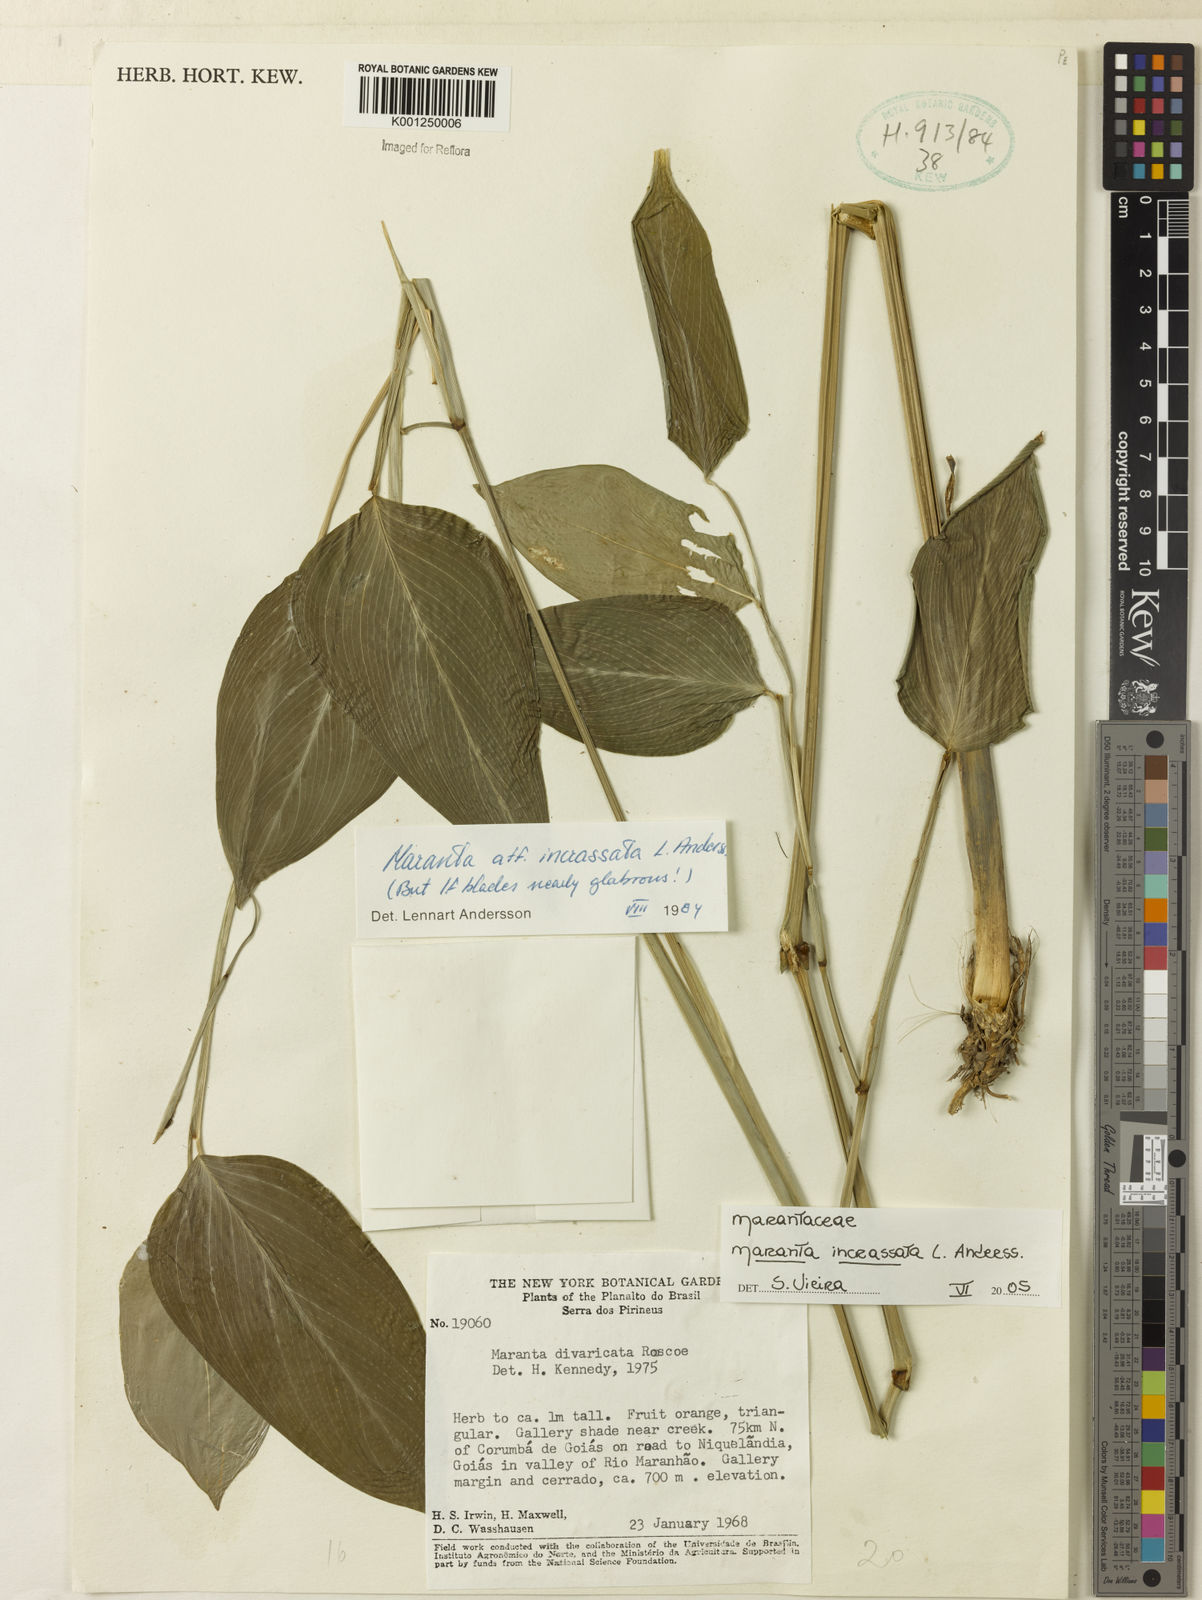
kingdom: Plantae
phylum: Tracheophyta
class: Liliopsida
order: Zingiberales
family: Marantaceae
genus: Maranta
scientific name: Maranta incrassata
